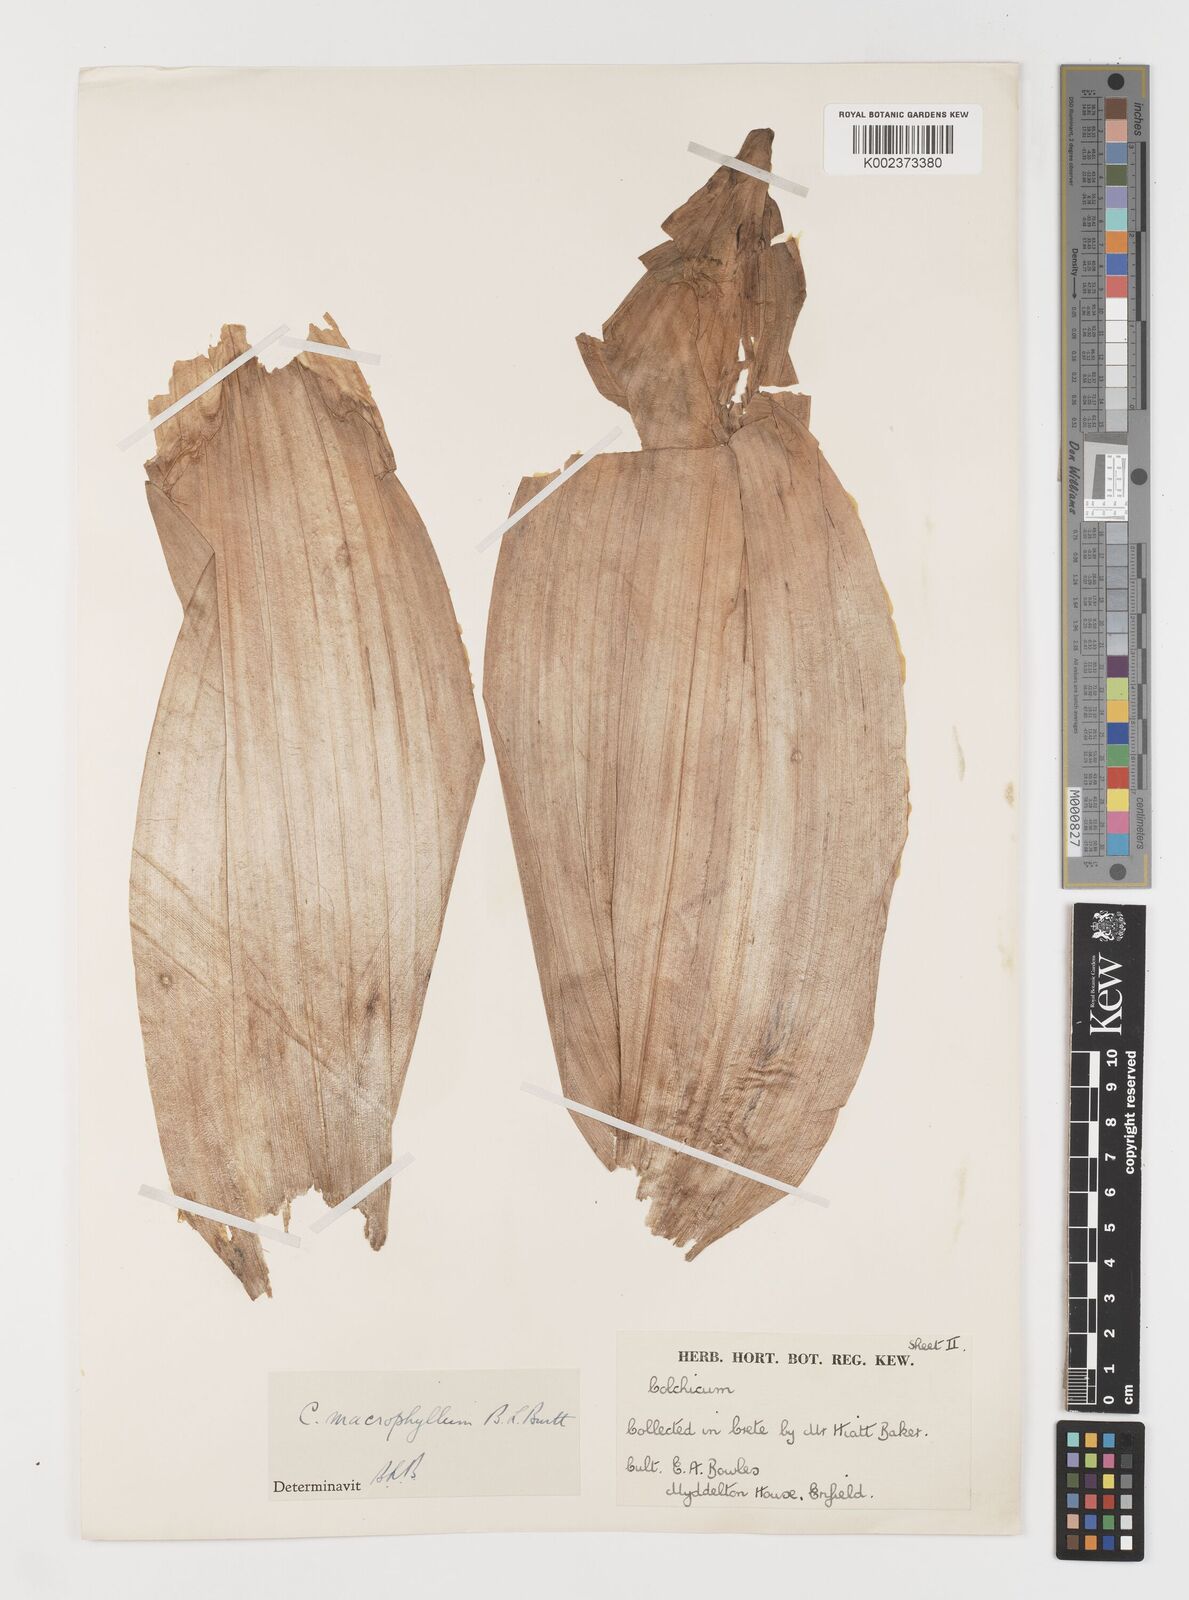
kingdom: Plantae
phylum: Tracheophyta
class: Liliopsida
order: Liliales
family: Colchicaceae
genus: Colchicum
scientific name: Colchicum macrophyllum
